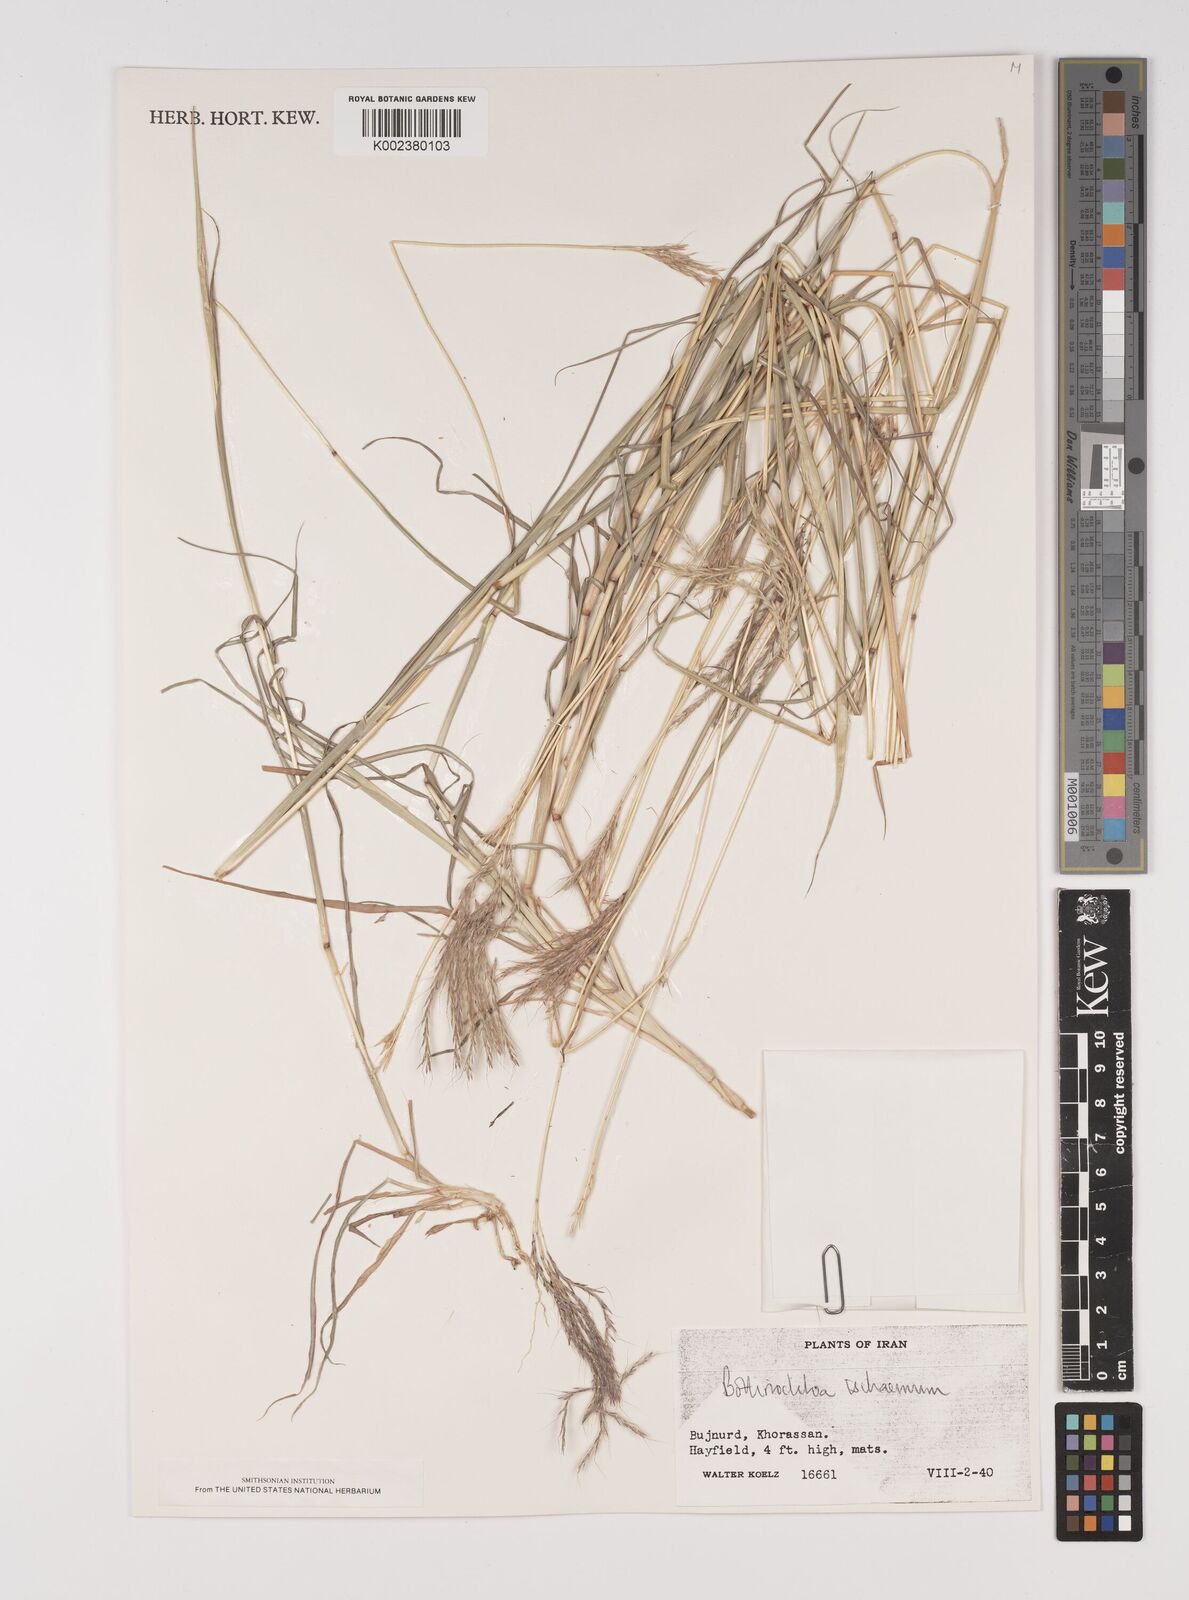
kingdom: Plantae
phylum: Tracheophyta
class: Liliopsida
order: Poales
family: Poaceae
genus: Bothriochloa
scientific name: Bothriochloa ischaemum
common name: Yellow bluestem
